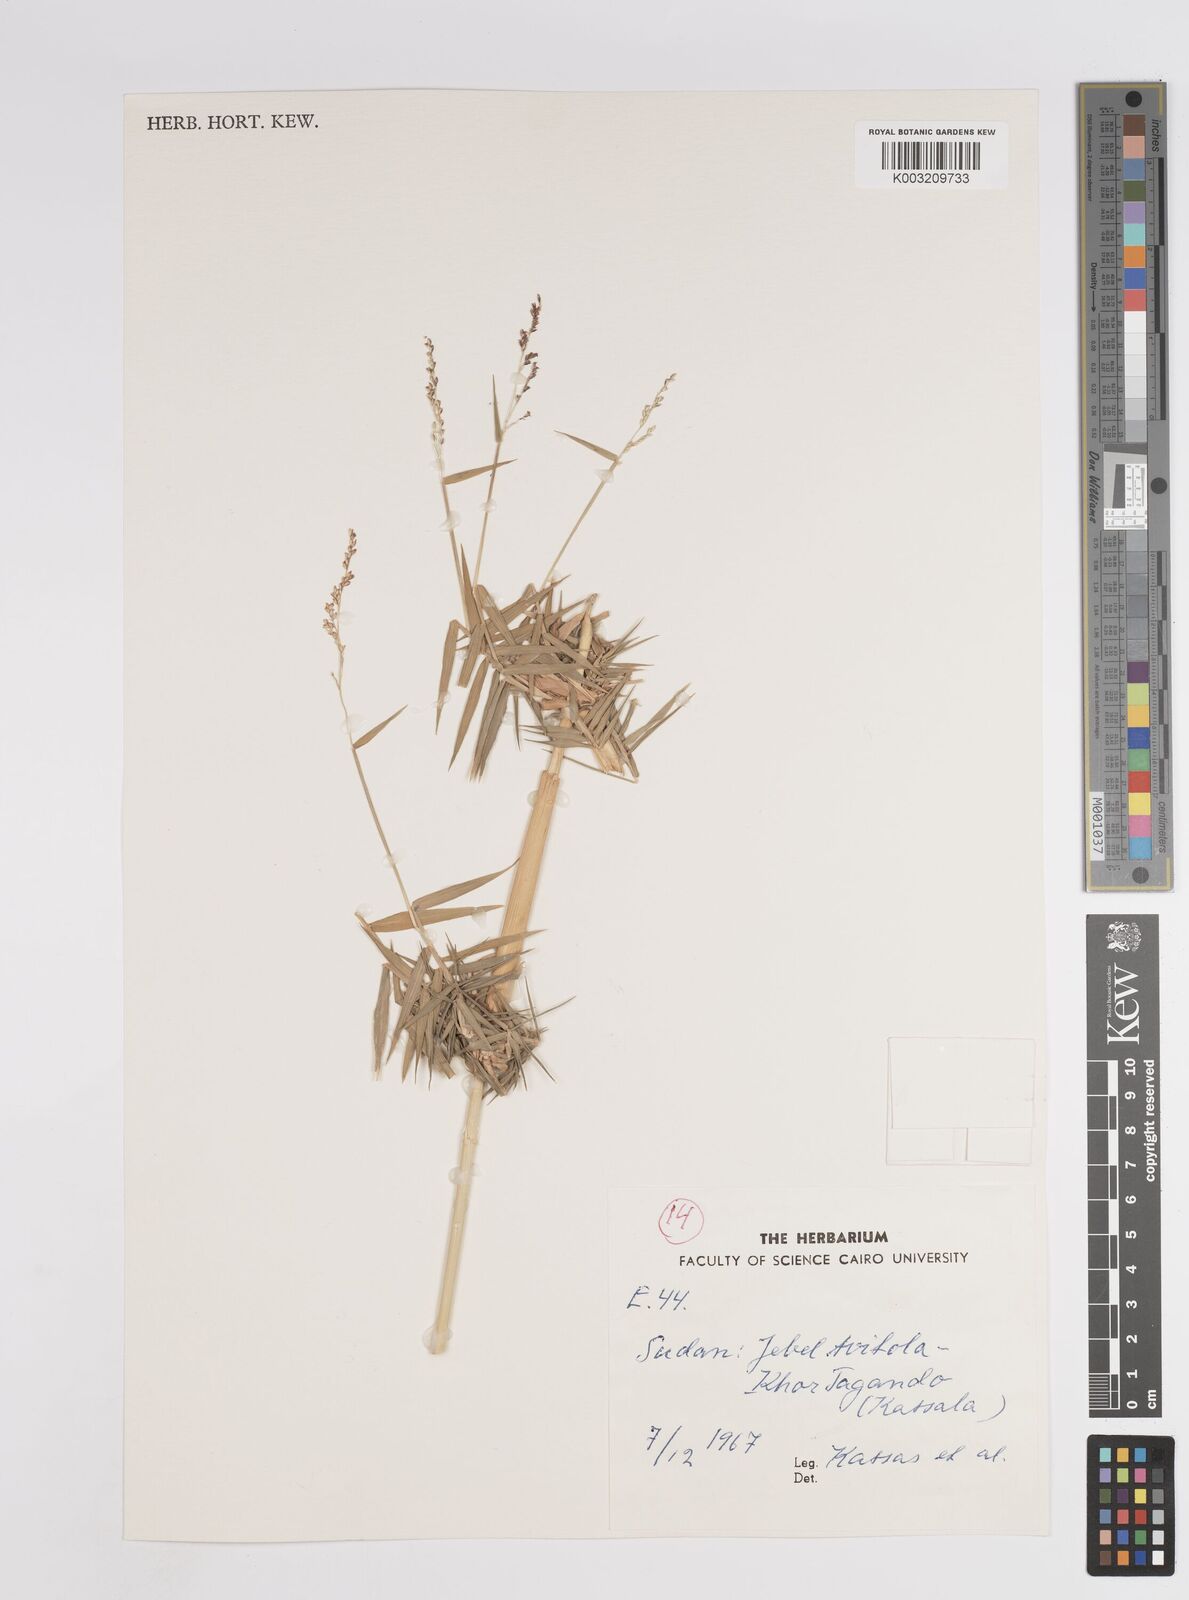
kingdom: Plantae
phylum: Tracheophyta
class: Liliopsida
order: Poales
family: Poaceae
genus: Panicum
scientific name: Panicum
